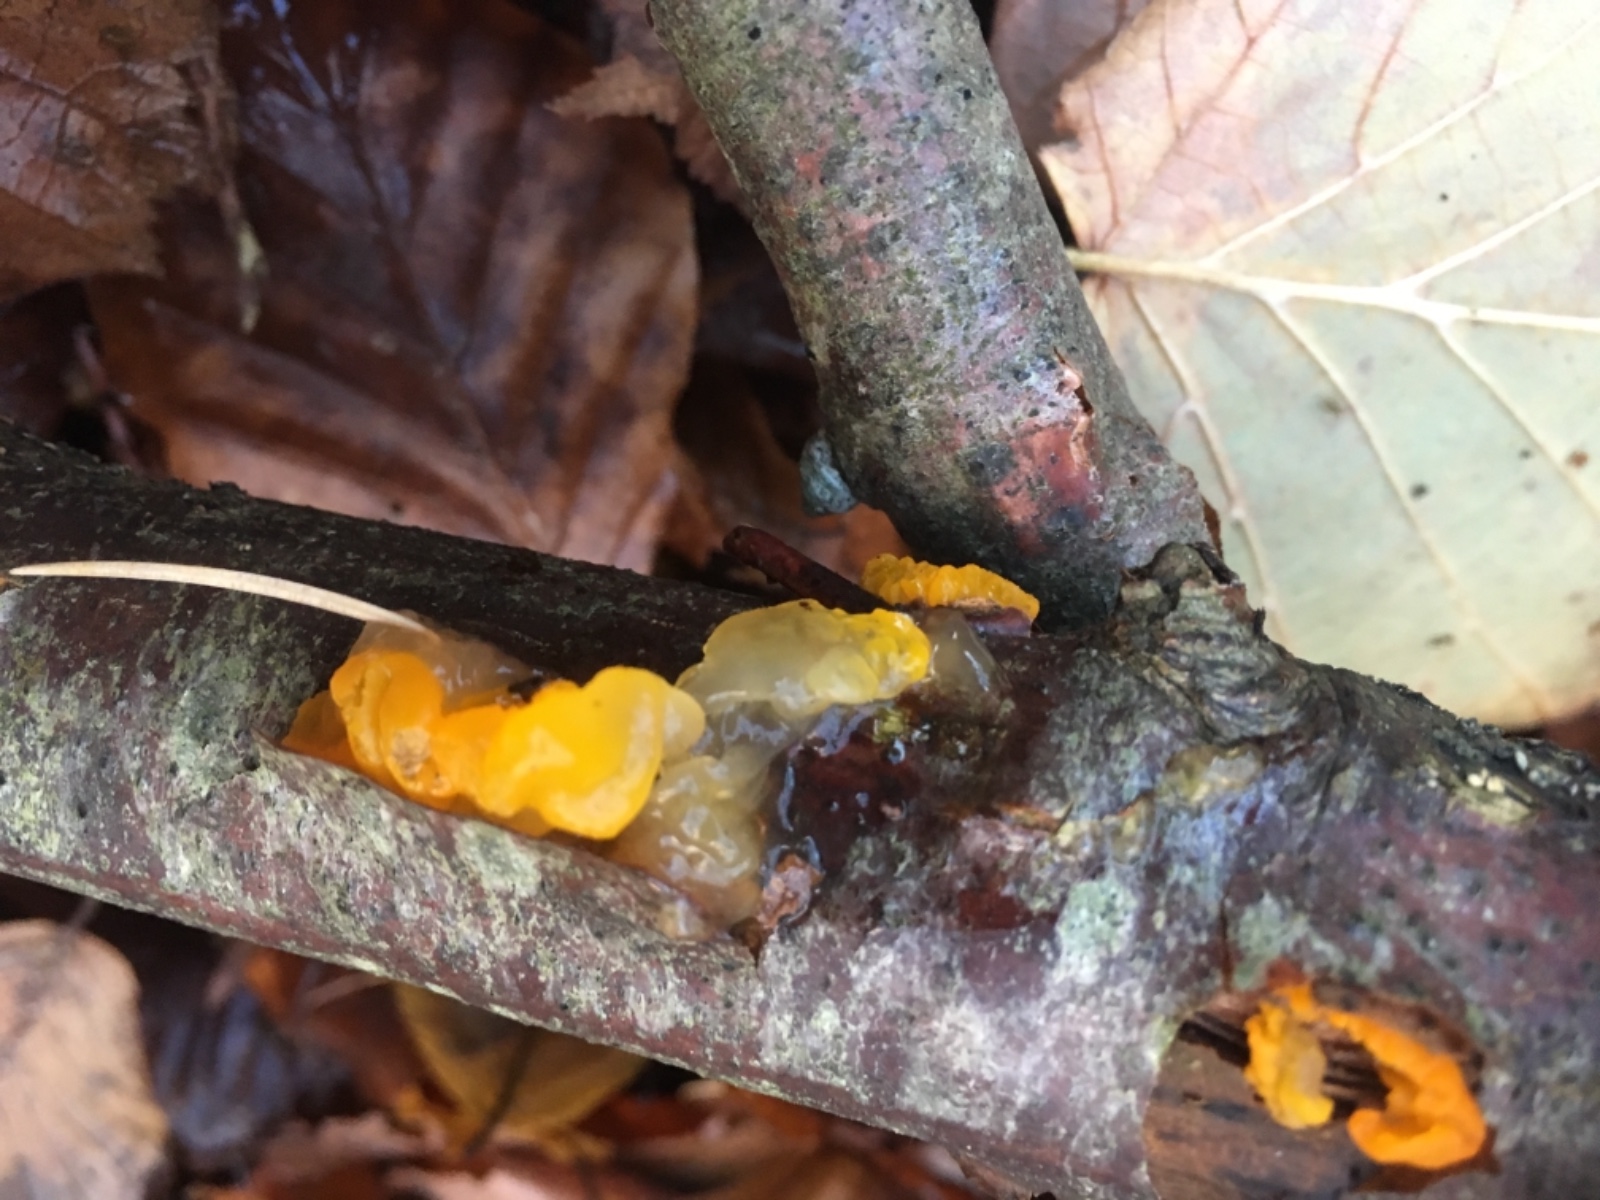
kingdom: Fungi
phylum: Basidiomycota
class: Tremellomycetes
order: Tremellales
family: Tremellaceae
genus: Tremella
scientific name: Tremella mesenterica
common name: gul bævresvamp
